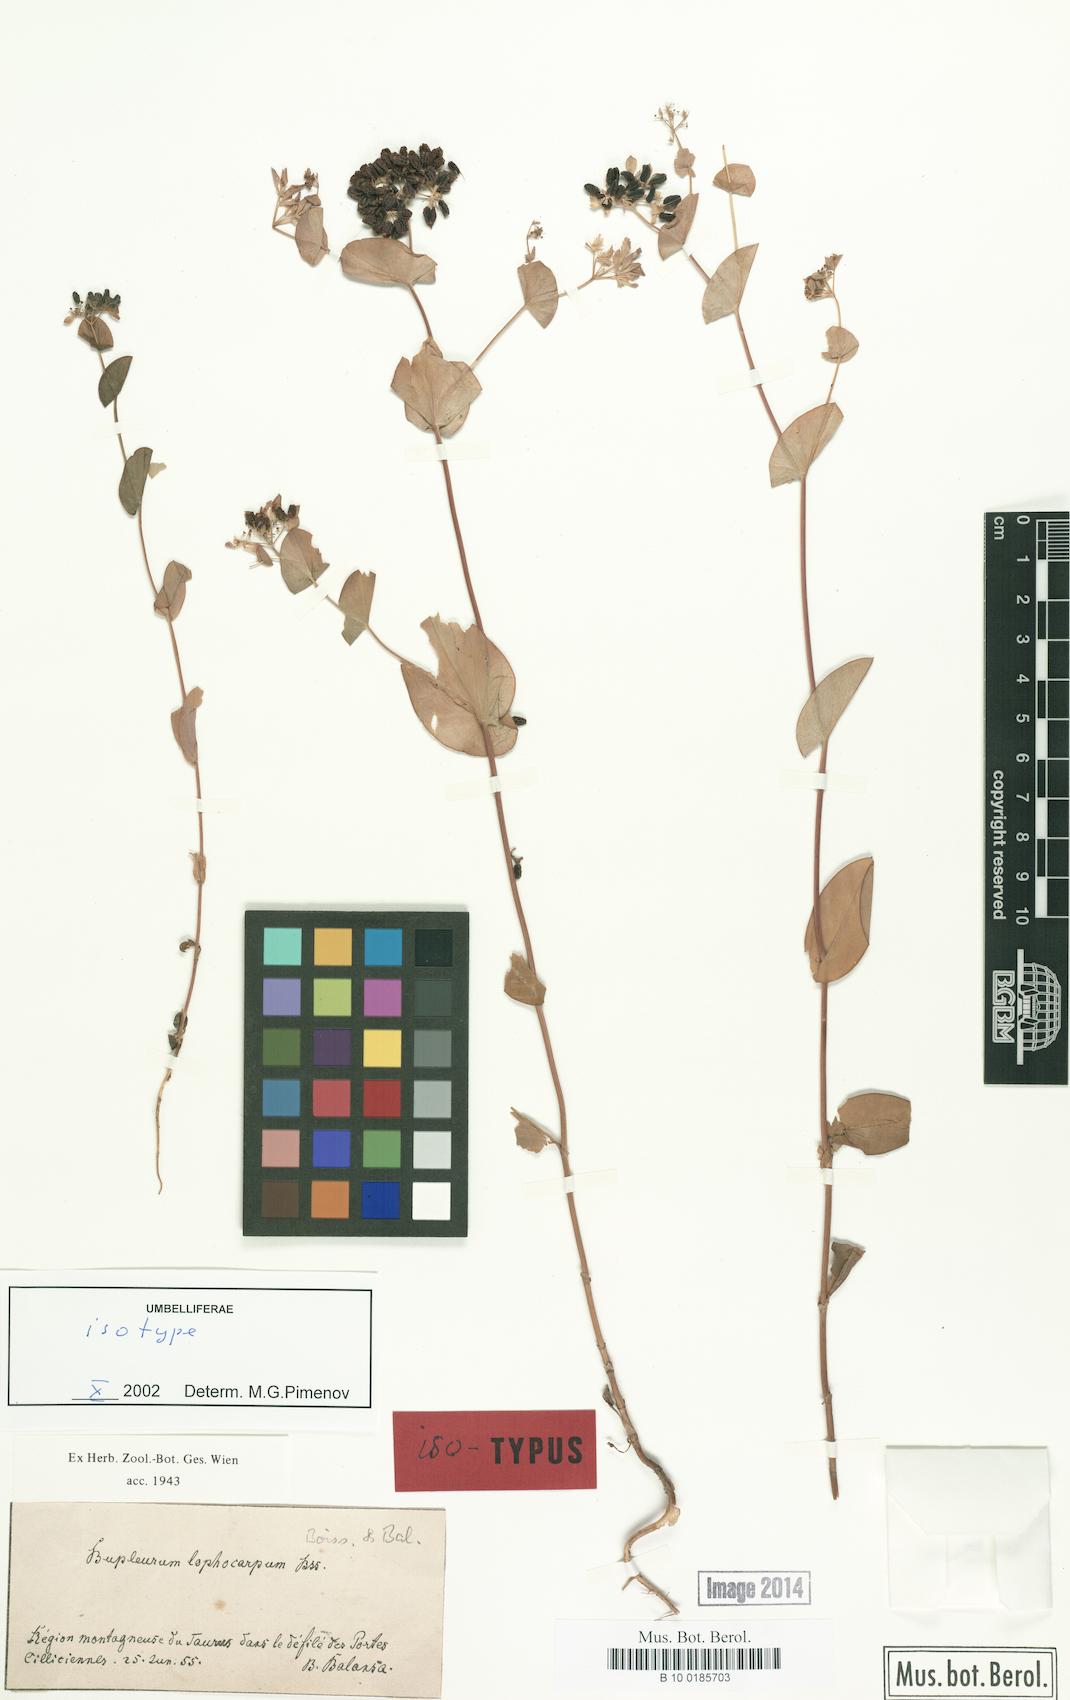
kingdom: Plantae
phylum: Tracheophyta
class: Magnoliopsida
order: Apiales
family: Apiaceae
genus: Bupleurum
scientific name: Bupleurum lophocarpum
